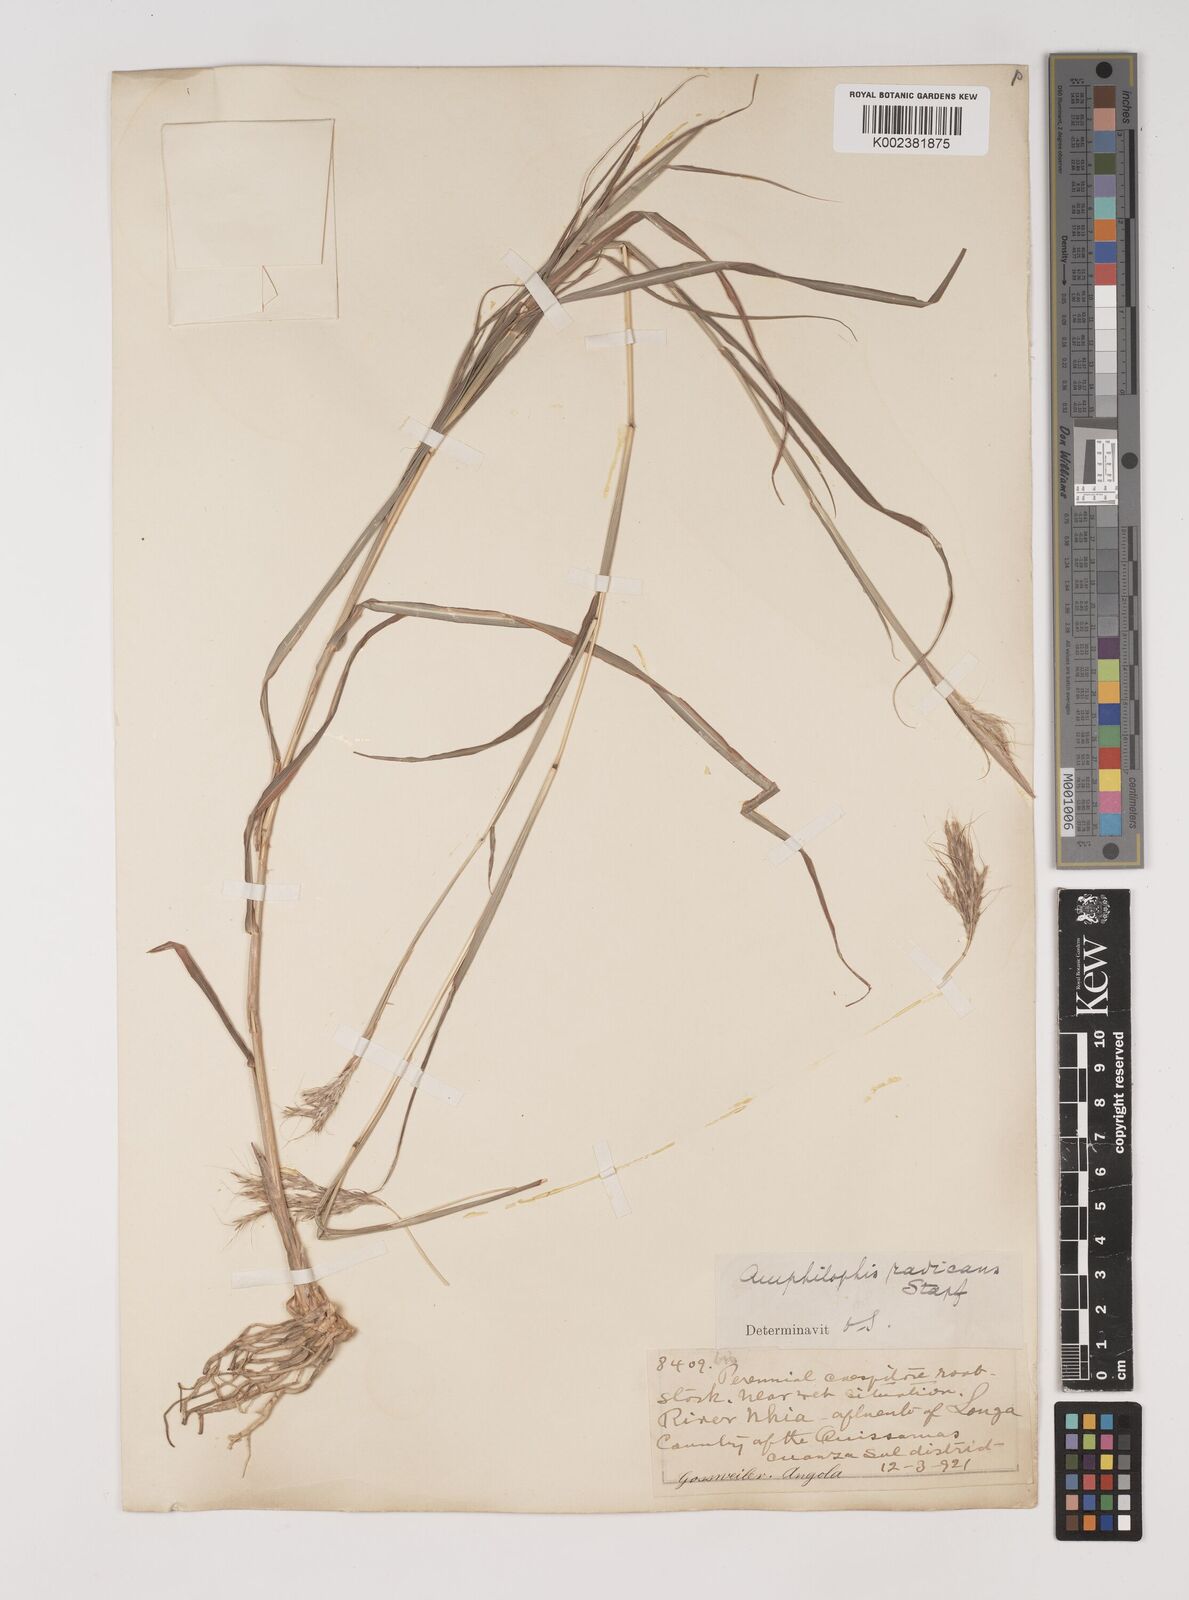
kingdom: Plantae
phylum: Tracheophyta
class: Liliopsida
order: Poales
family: Poaceae
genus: Bothriochloa
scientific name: Bothriochloa radicans
